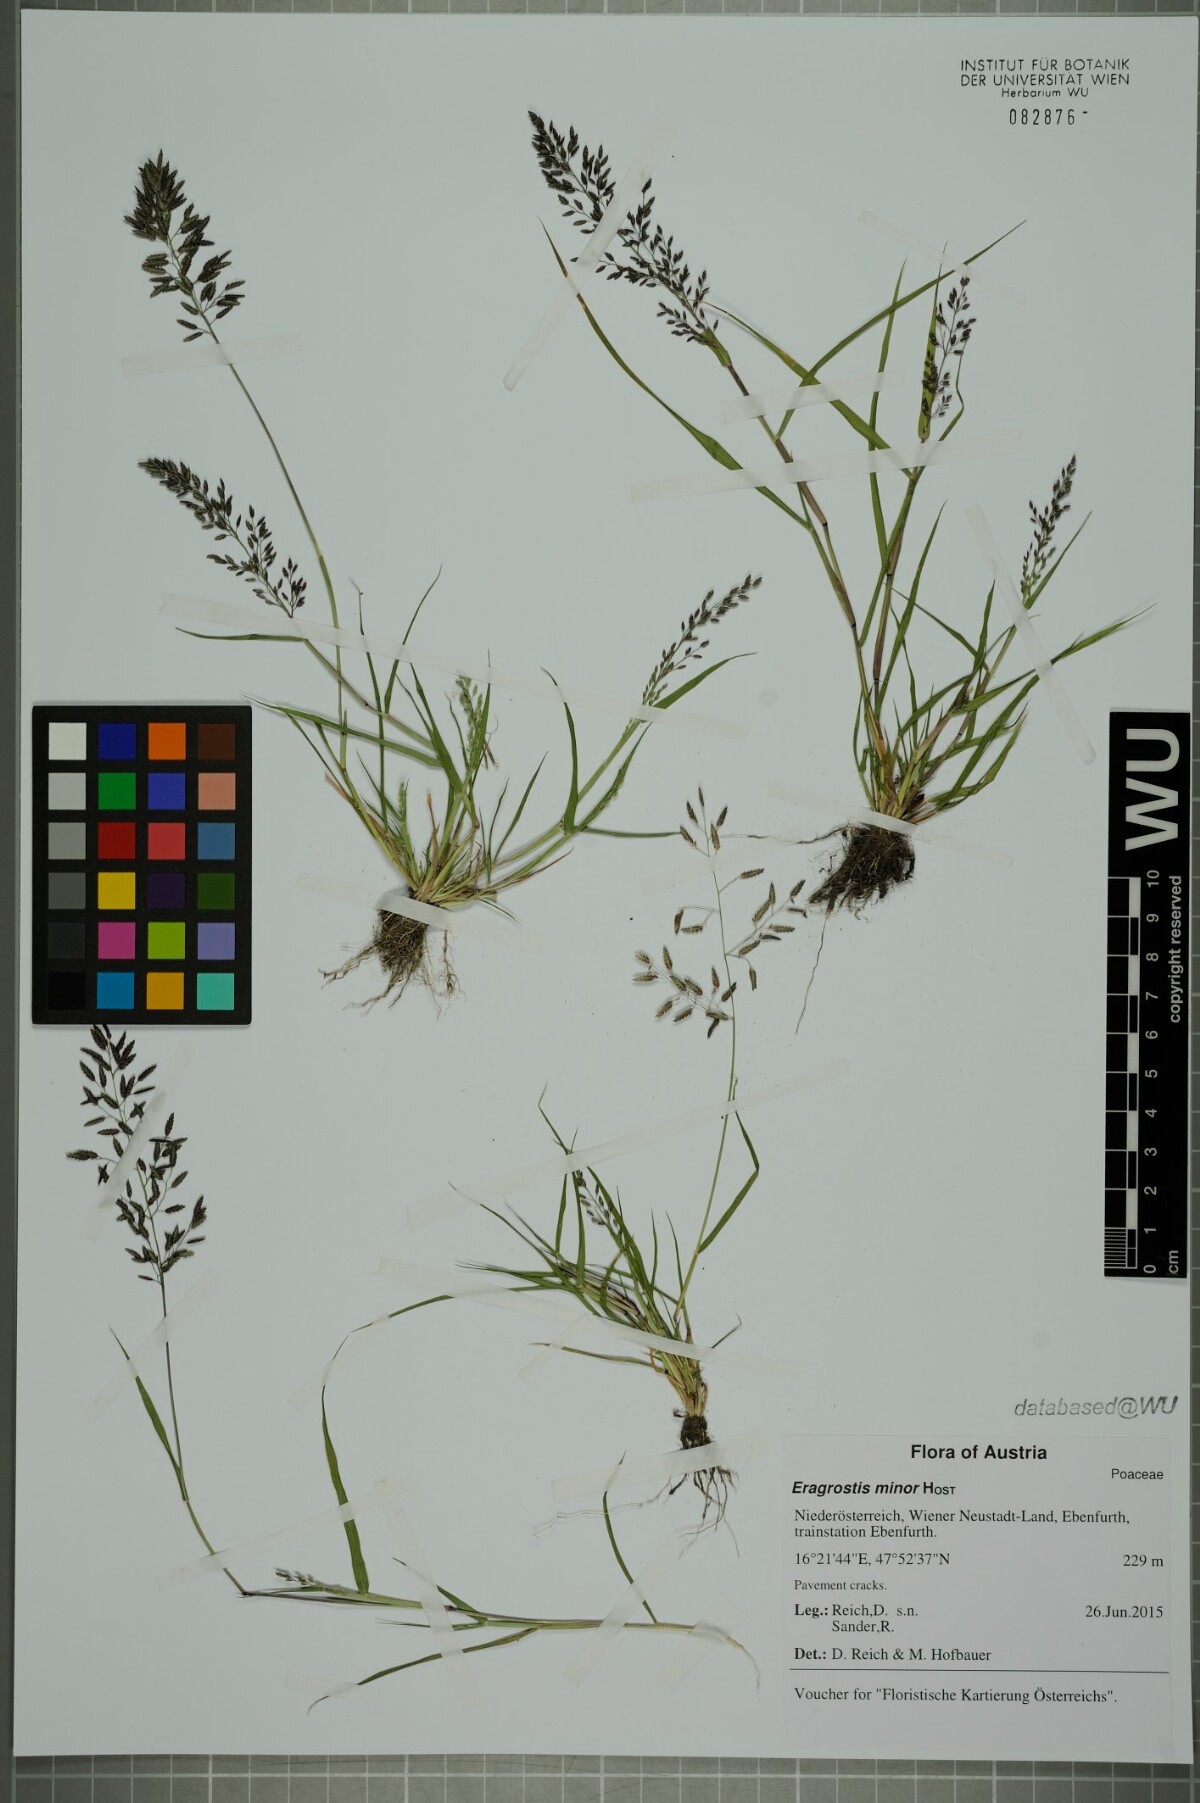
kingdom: Plantae
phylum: Tracheophyta
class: Liliopsida
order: Poales
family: Poaceae
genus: Eragrostis
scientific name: Eragrostis minor
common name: Small love-grass
